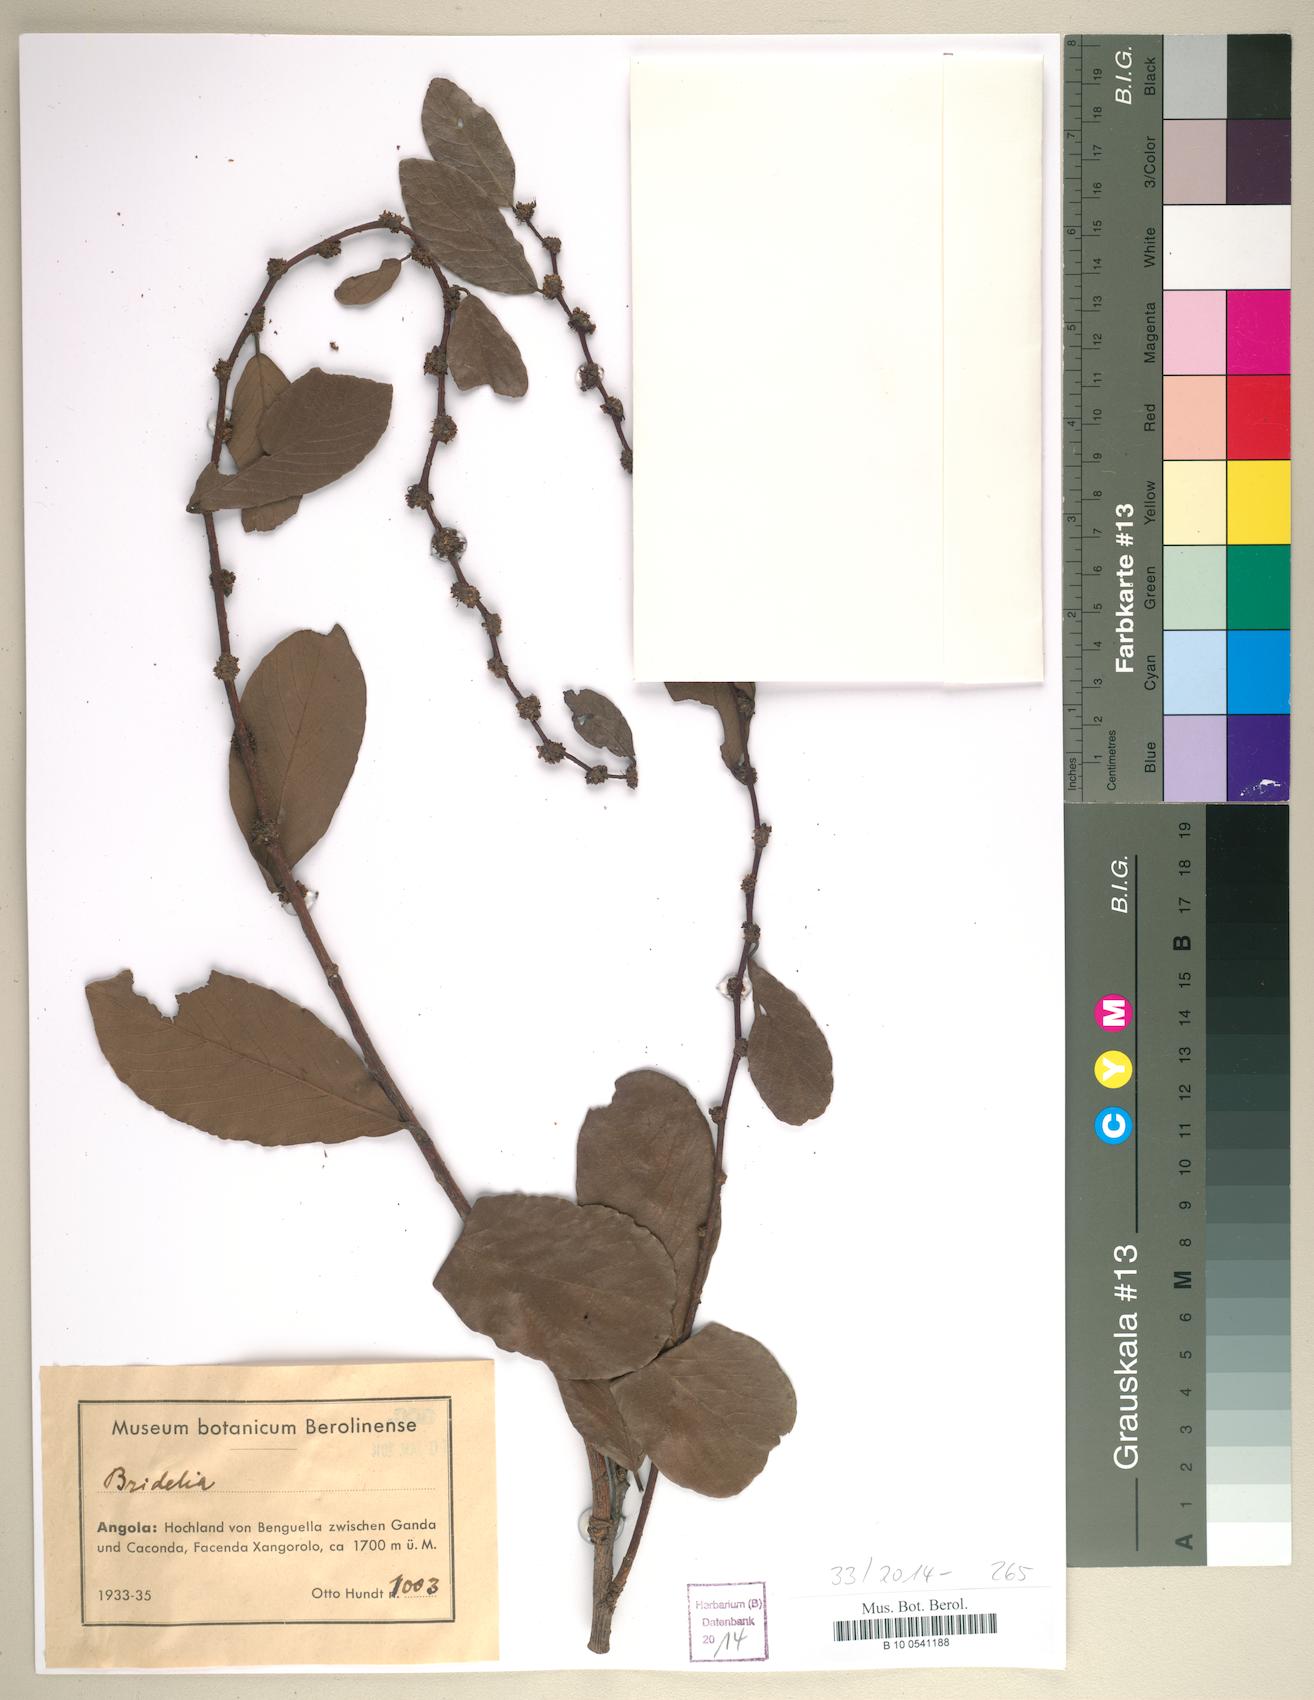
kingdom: Plantae
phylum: Tracheophyta
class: Magnoliopsida
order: Malpighiales
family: Euphorbiaceae
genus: Bridelia
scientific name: Bridelia
